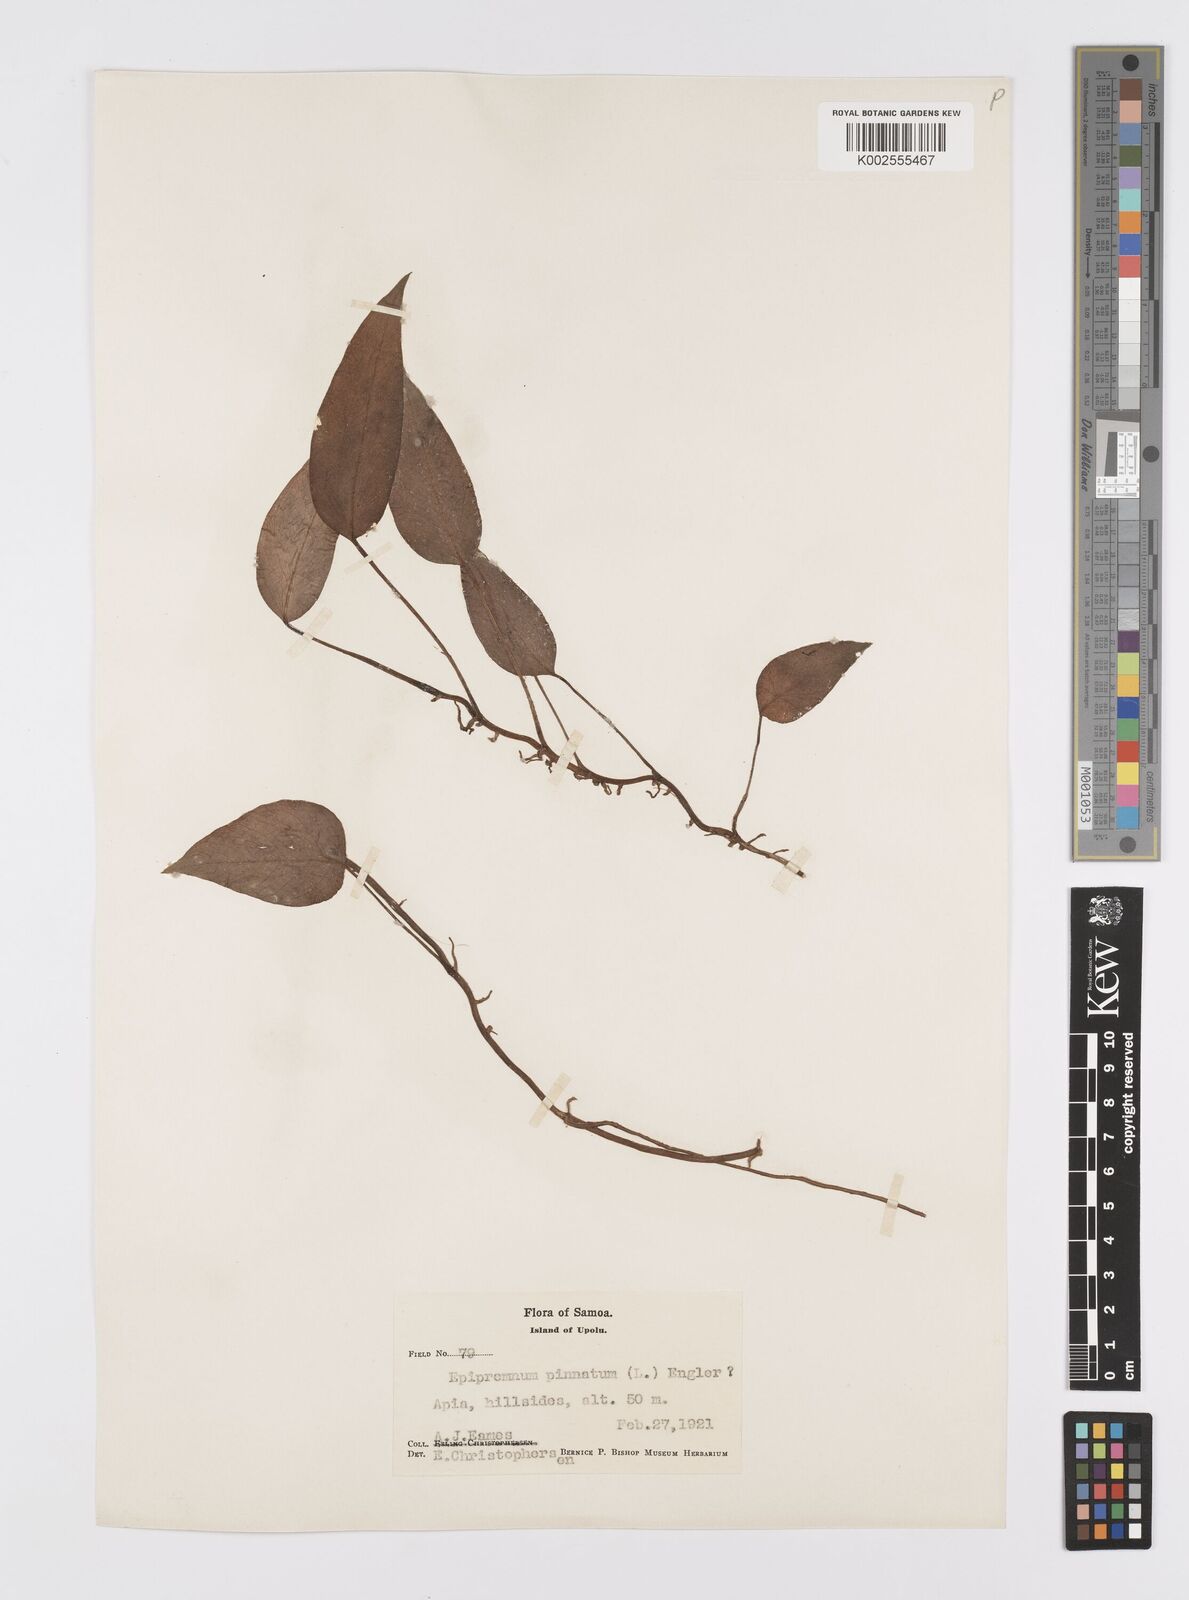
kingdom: Plantae
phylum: Tracheophyta
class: Liliopsida
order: Alismatales
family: Araceae
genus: Epipremnum
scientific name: Epipremnum pinnatum
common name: Centipede tongavine
